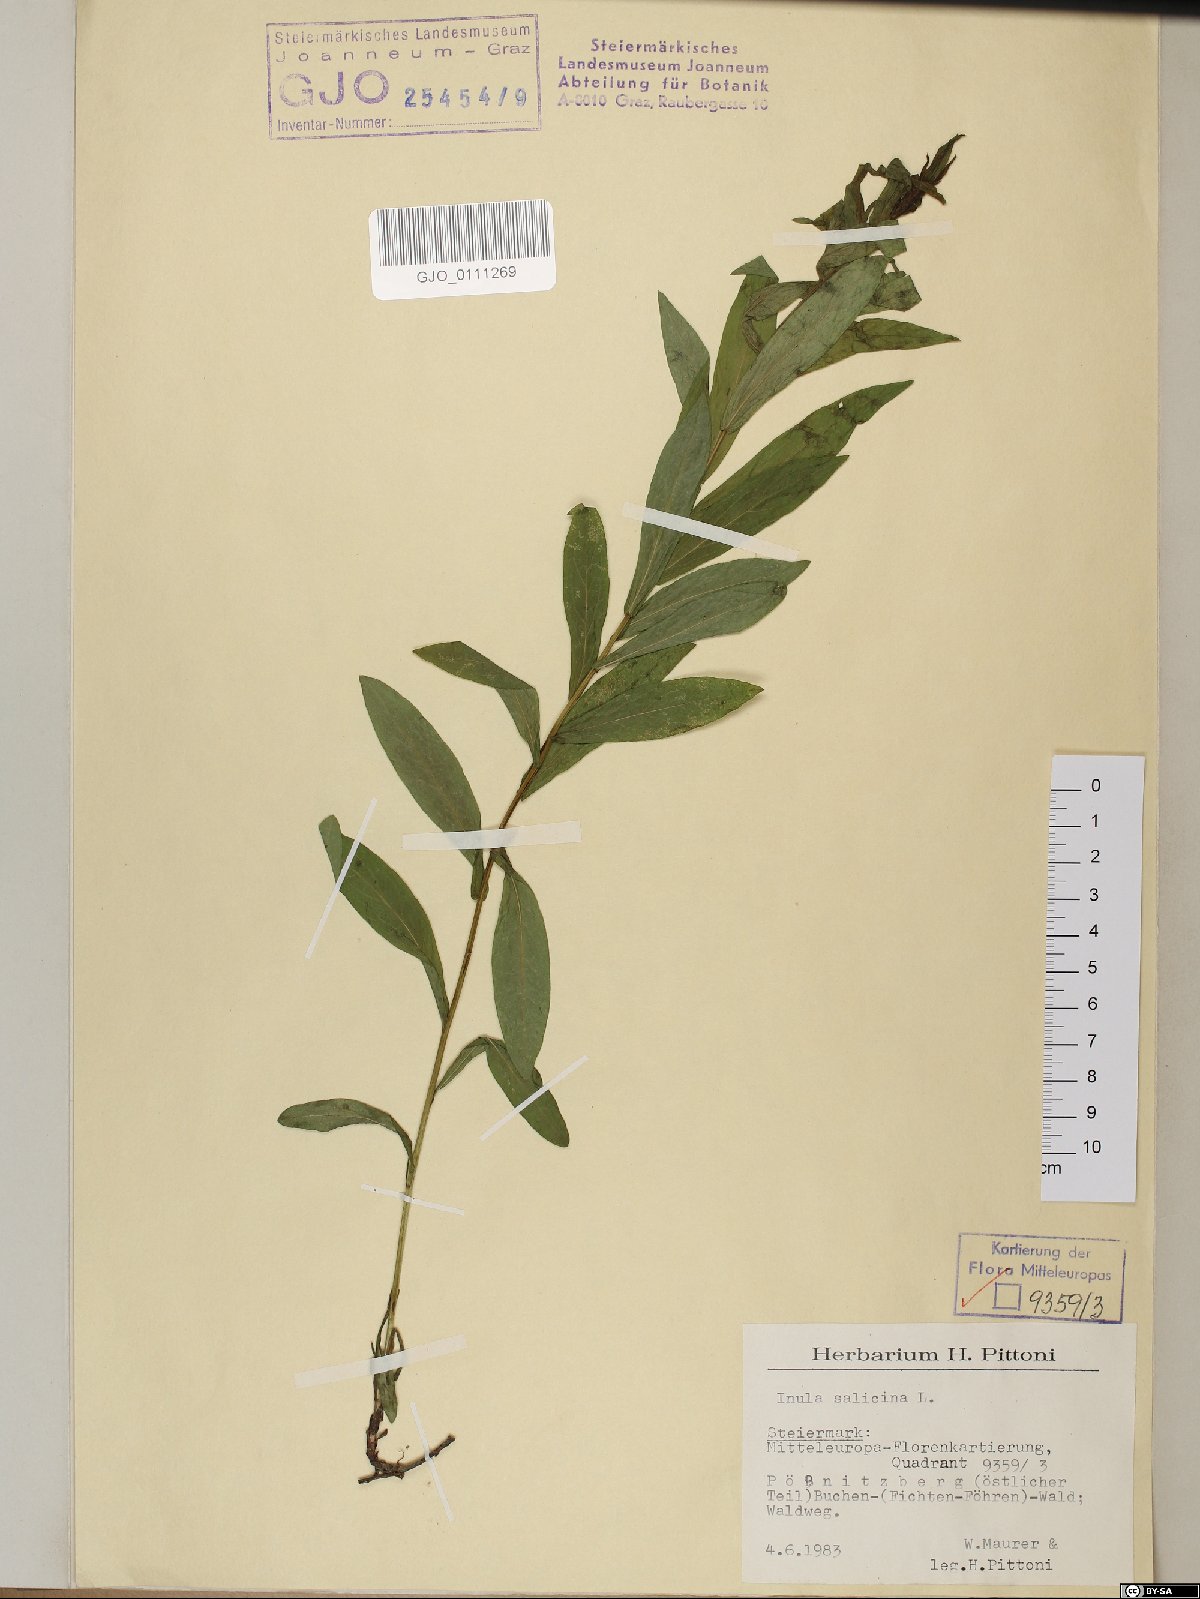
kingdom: Plantae
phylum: Tracheophyta
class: Magnoliopsida
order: Asterales
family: Asteraceae
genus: Pentanema
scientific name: Pentanema salicinum
